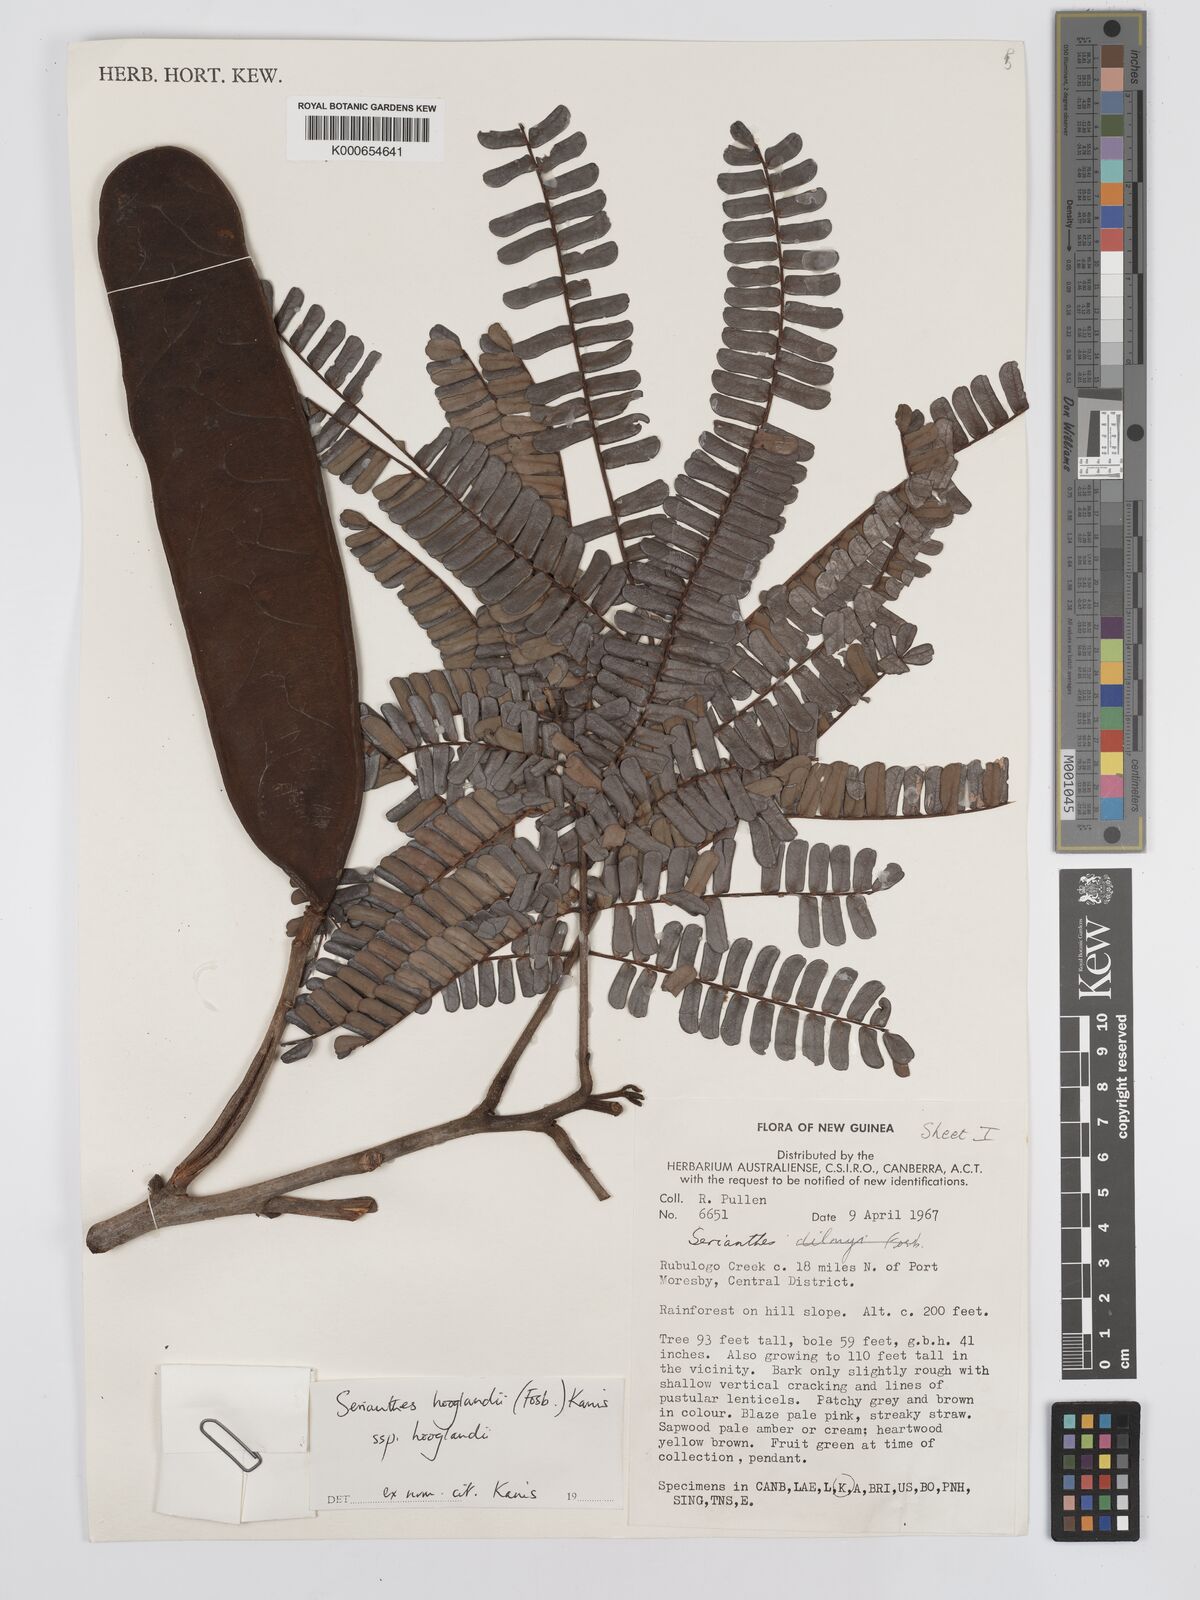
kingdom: Plantae
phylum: Tracheophyta
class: Magnoliopsida
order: Fabales
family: Fabaceae
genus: Serianthes
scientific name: Serianthes hooglandii
